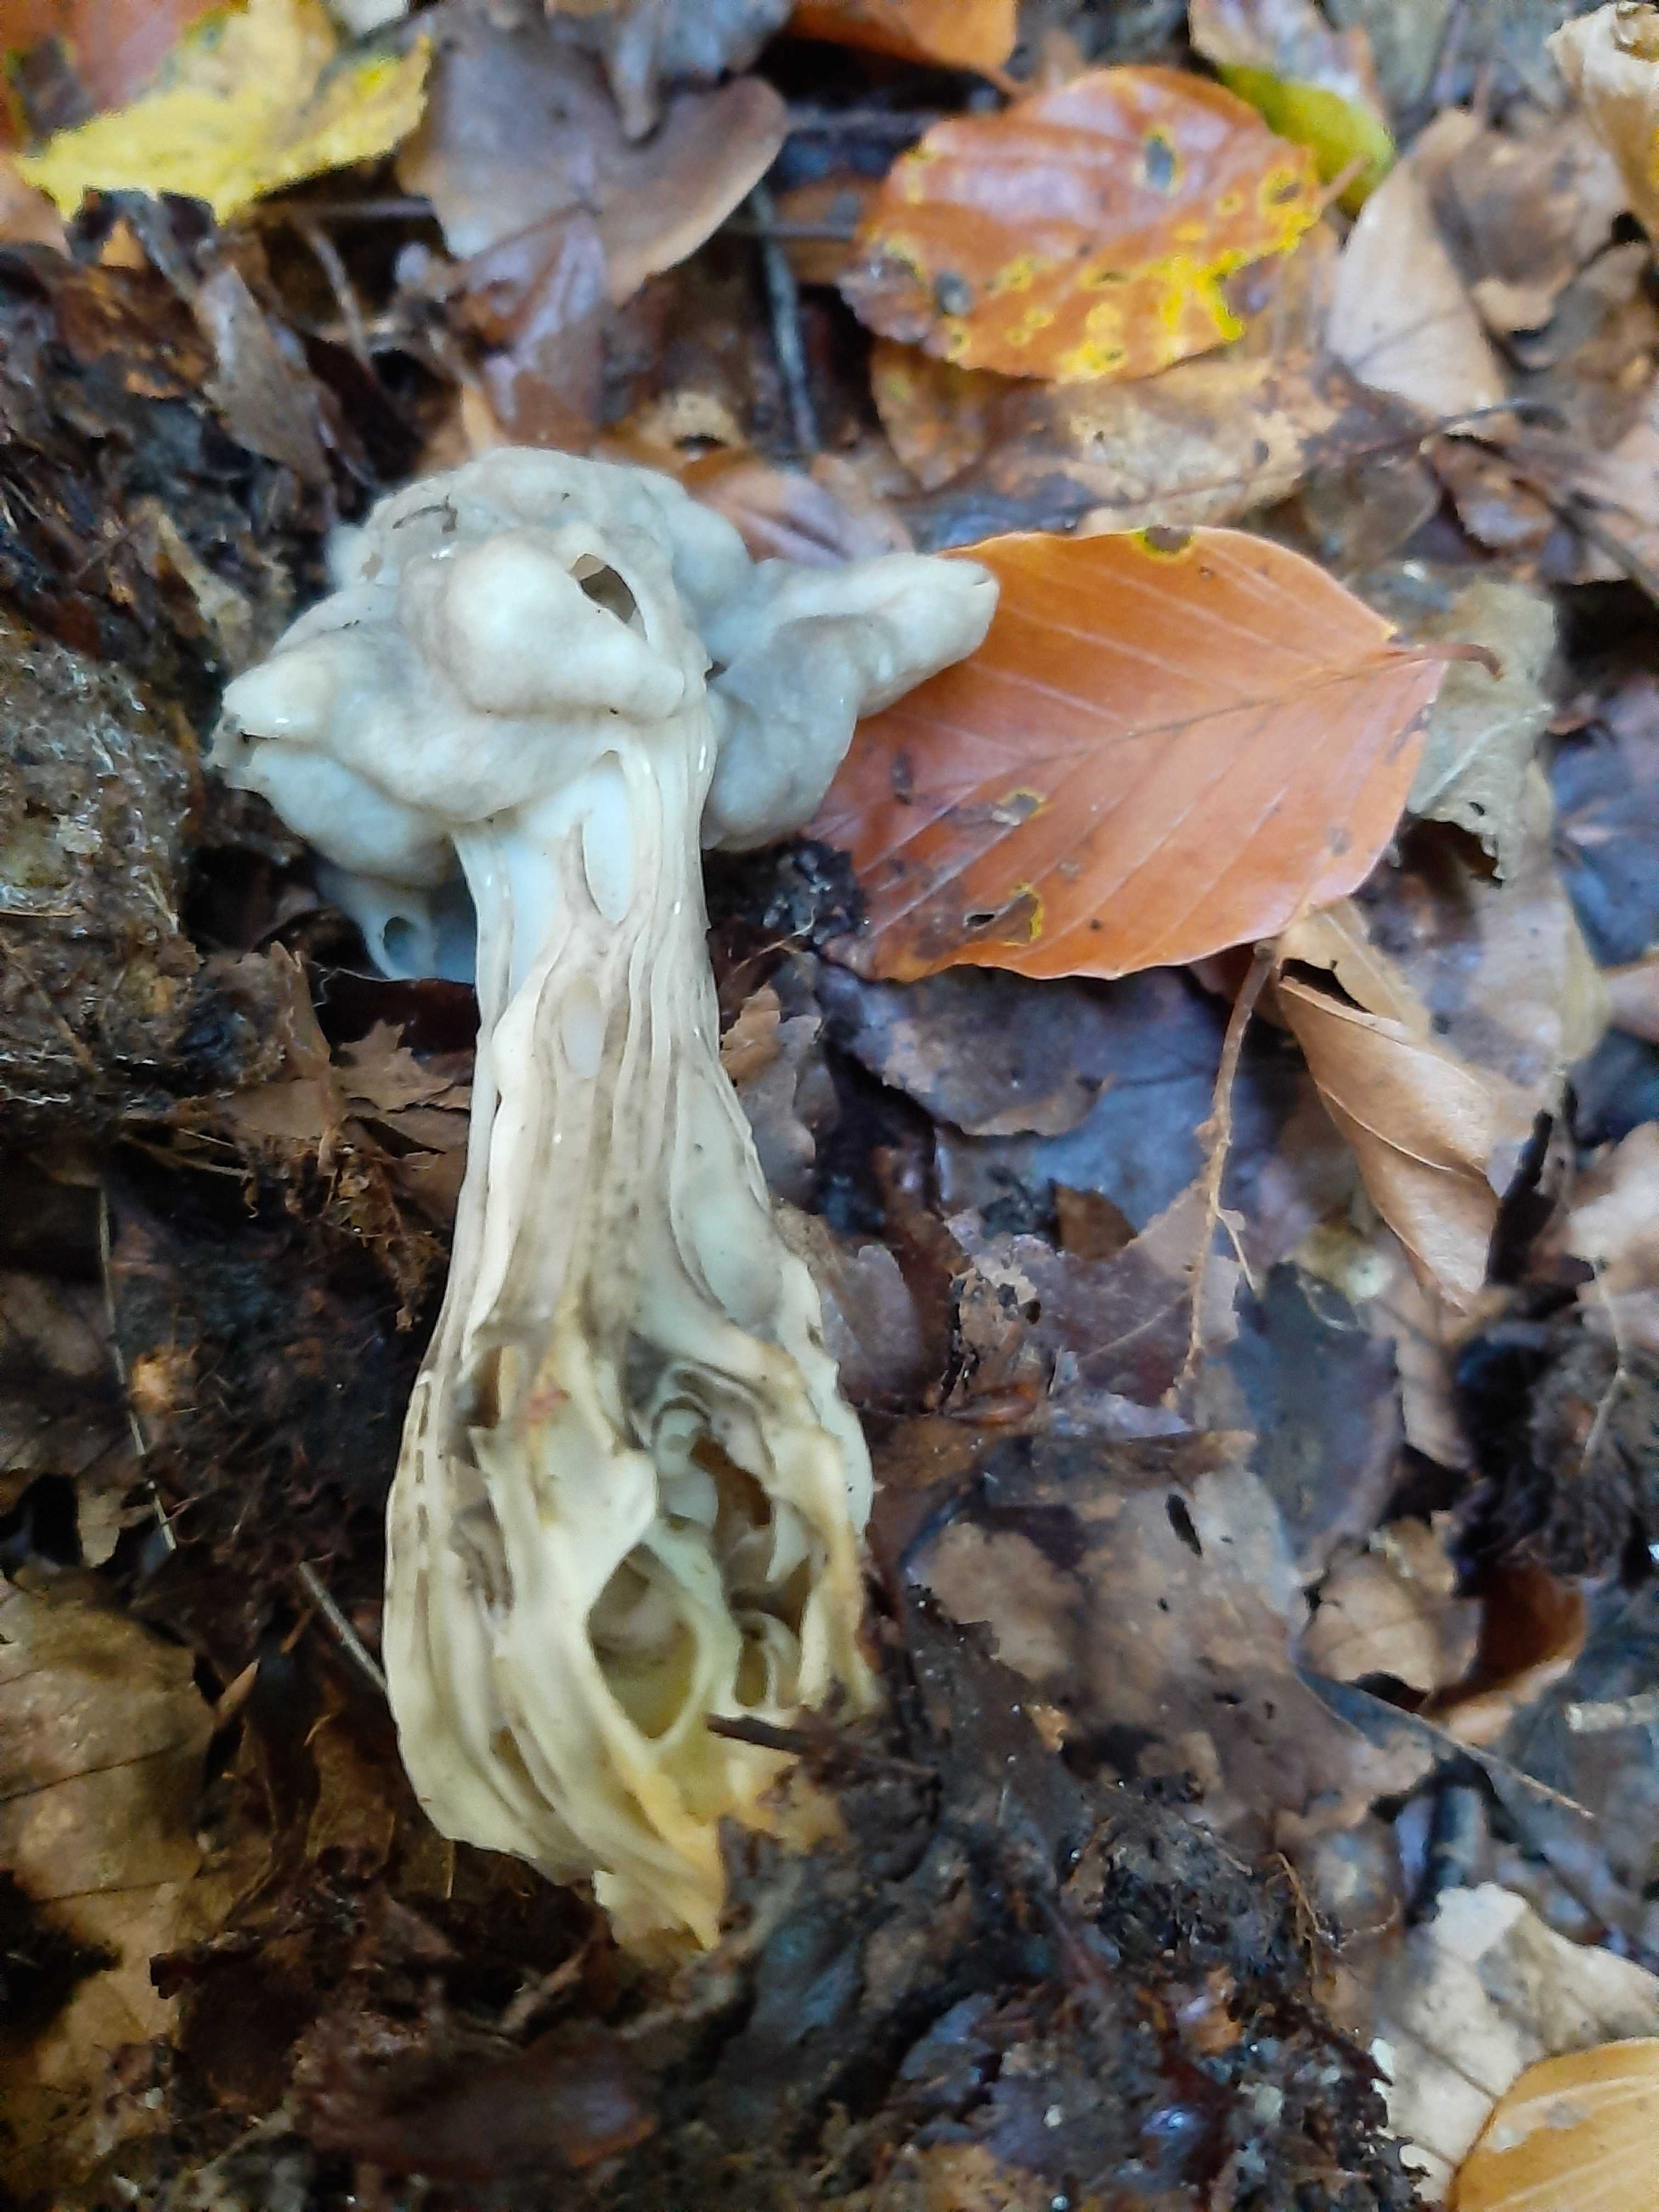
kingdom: Fungi
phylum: Ascomycota
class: Pezizomycetes
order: Pezizales
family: Helvellaceae
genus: Helvella
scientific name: Helvella crispa
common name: kruset foldhat
